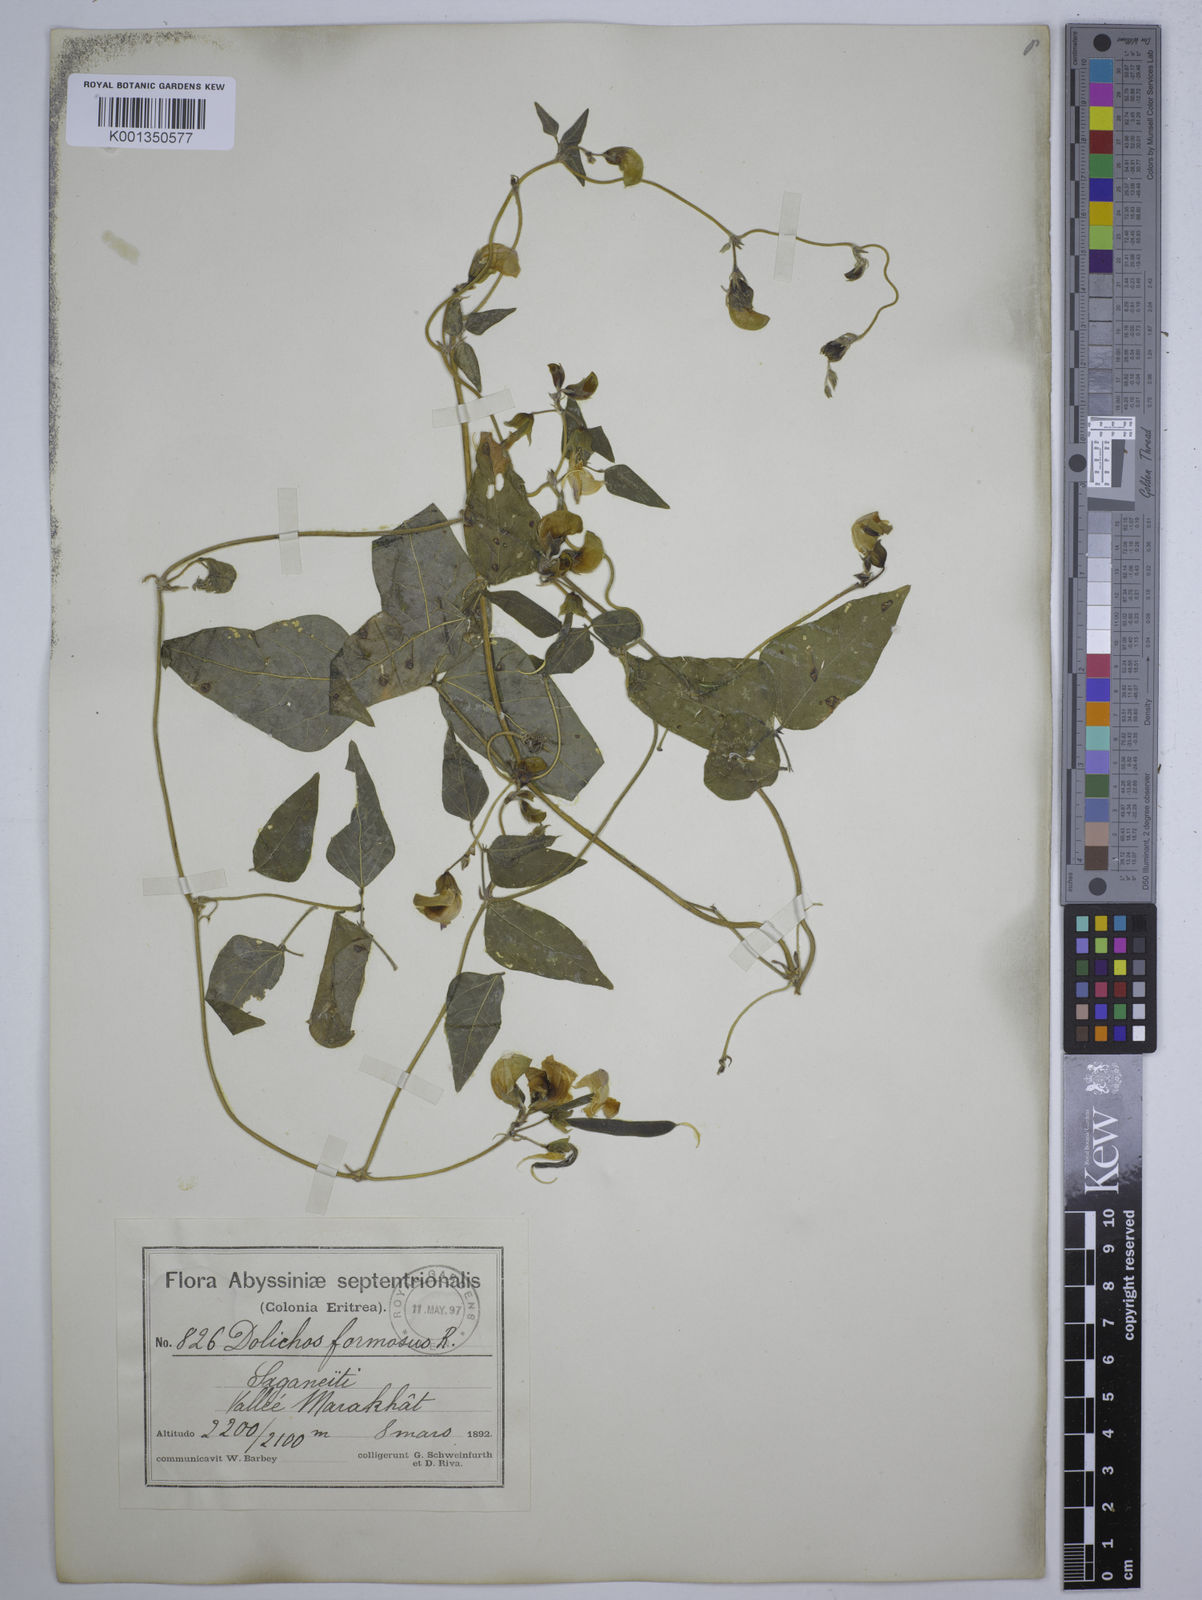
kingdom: Plantae
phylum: Tracheophyta
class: Magnoliopsida
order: Fabales
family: Fabaceae
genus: Dolichos
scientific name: Dolichos
